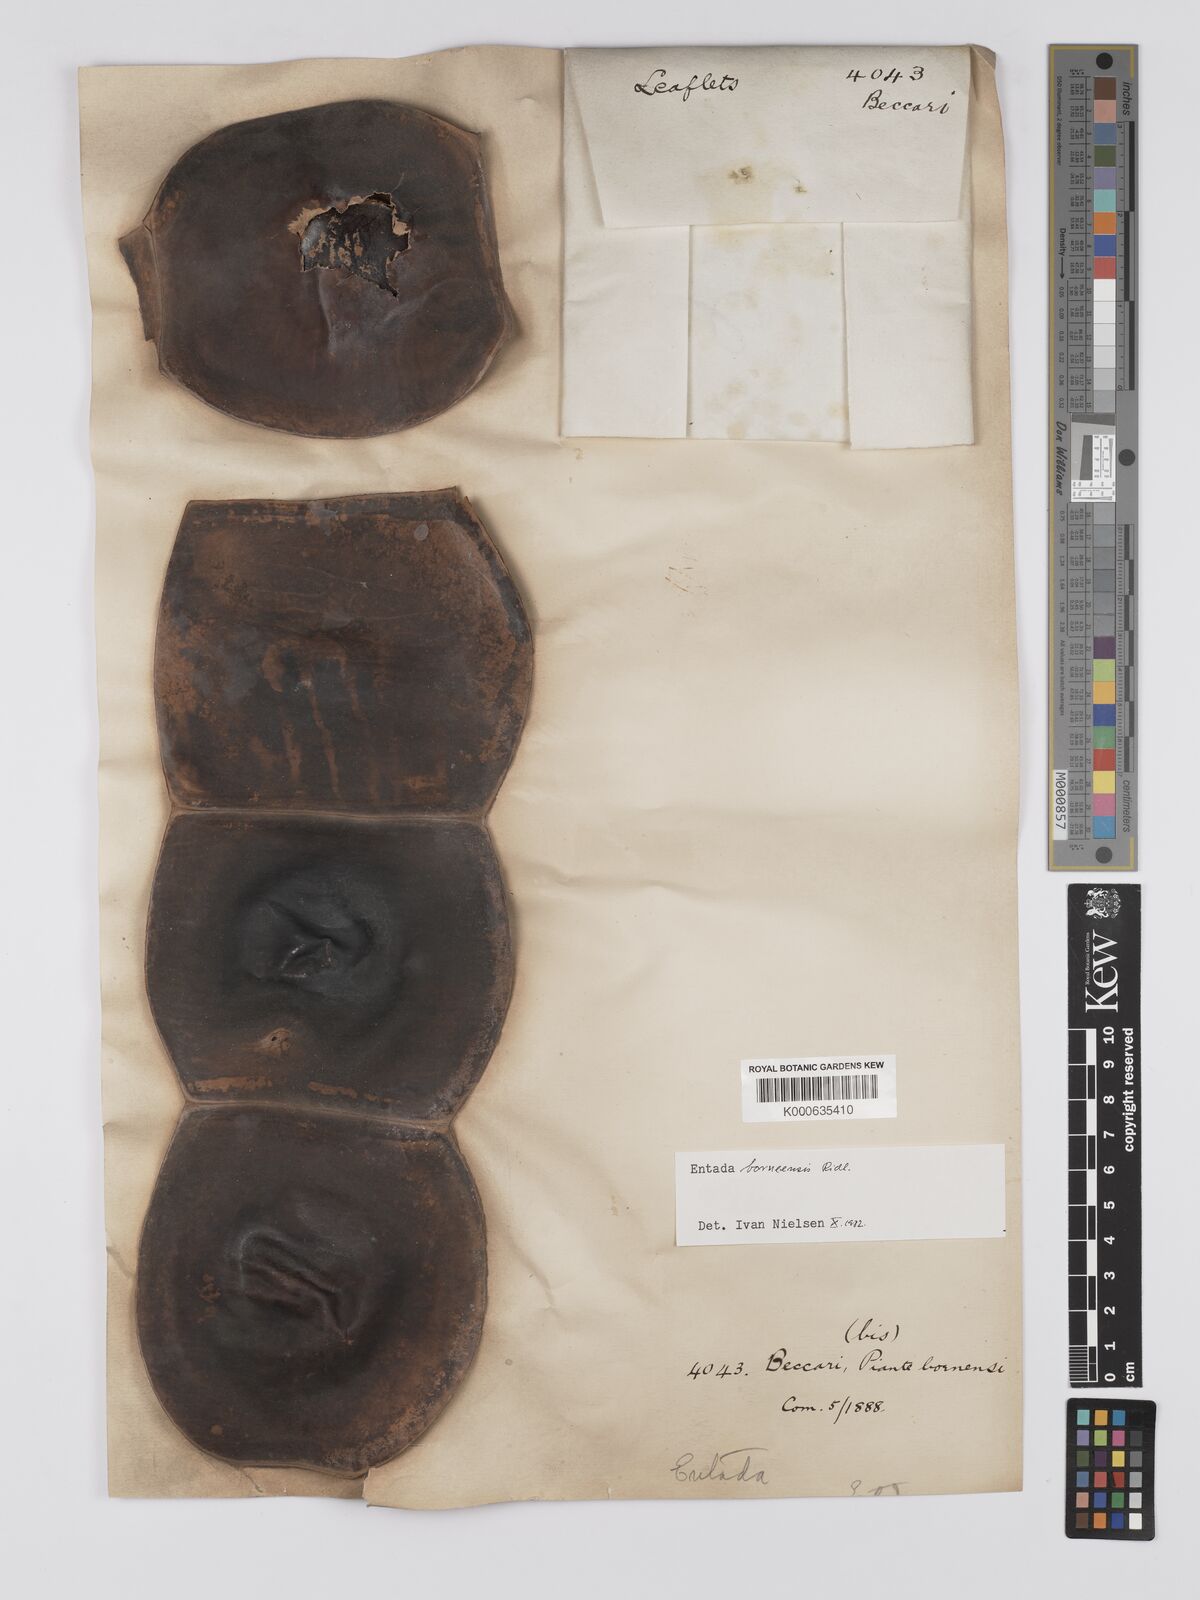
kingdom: Plantae
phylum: Tracheophyta
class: Magnoliopsida
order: Fabales
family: Fabaceae
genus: Entada
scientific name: Entada borneensis
